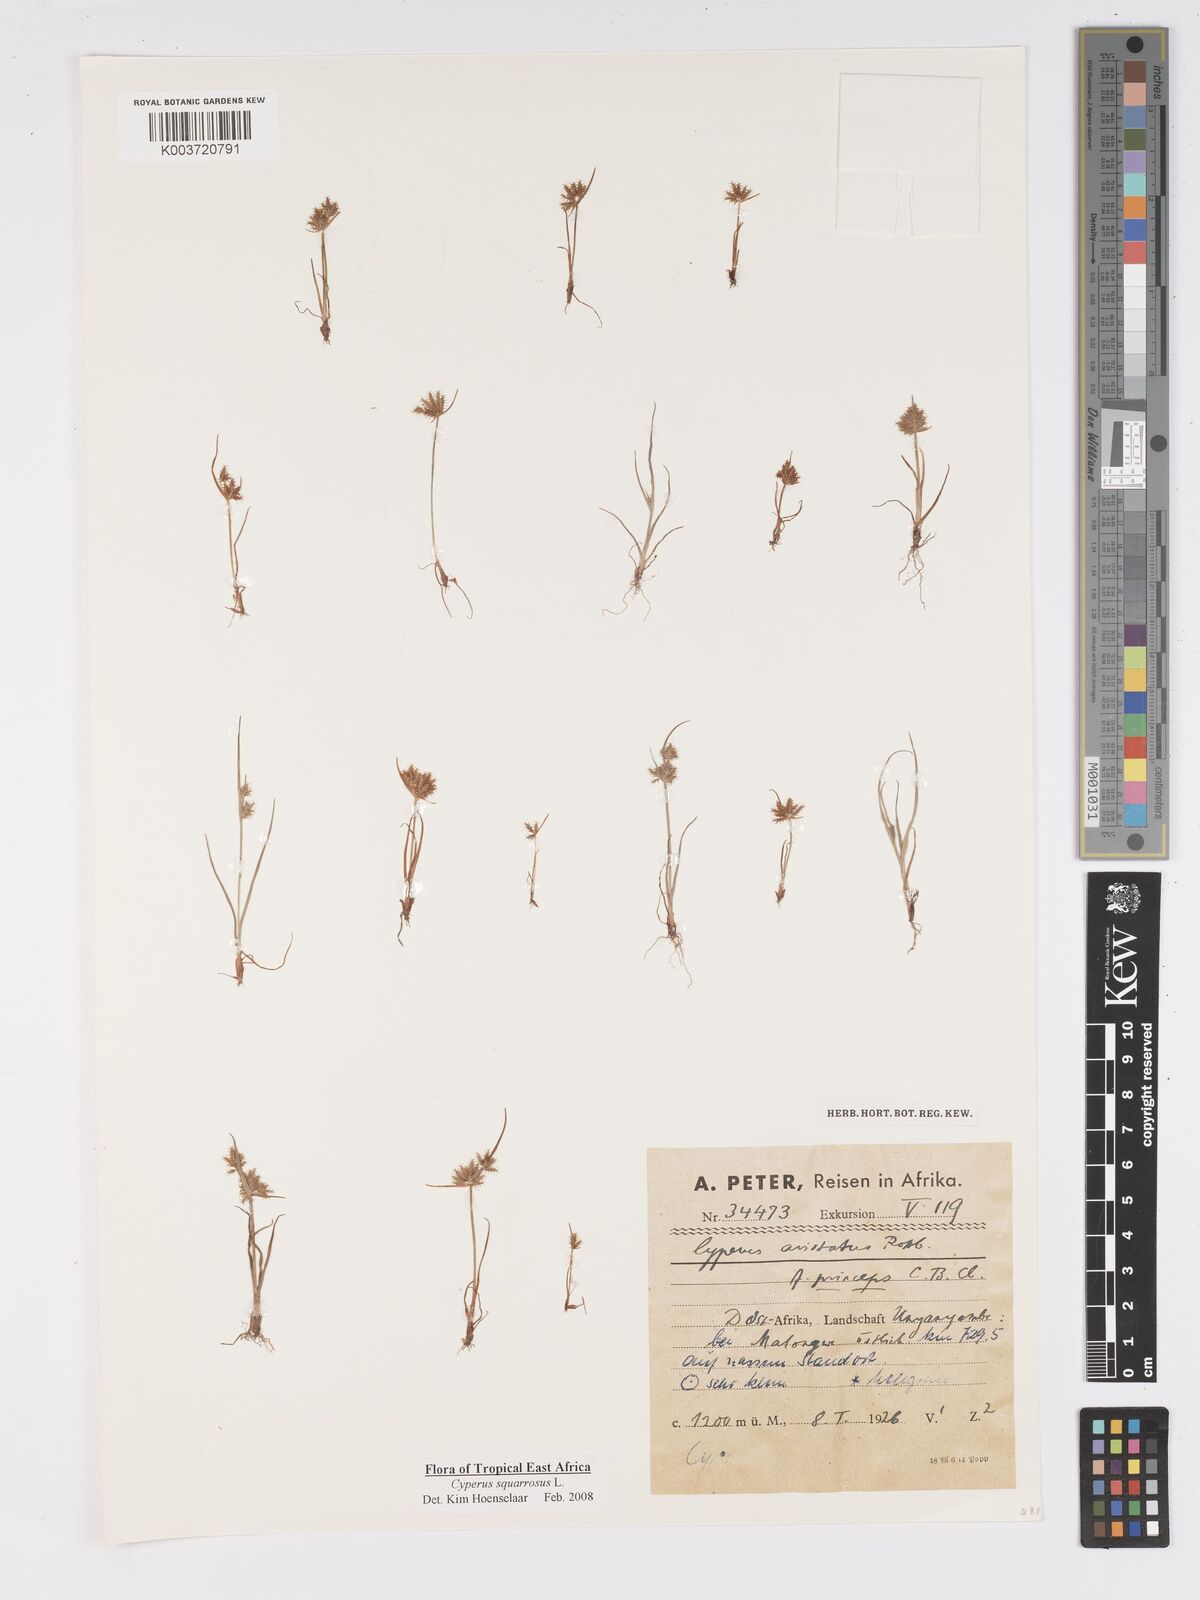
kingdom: Plantae
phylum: Tracheophyta
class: Liliopsida
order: Poales
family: Cyperaceae
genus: Cyperus
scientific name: Cyperus squarrosus
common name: Awned cyperus
